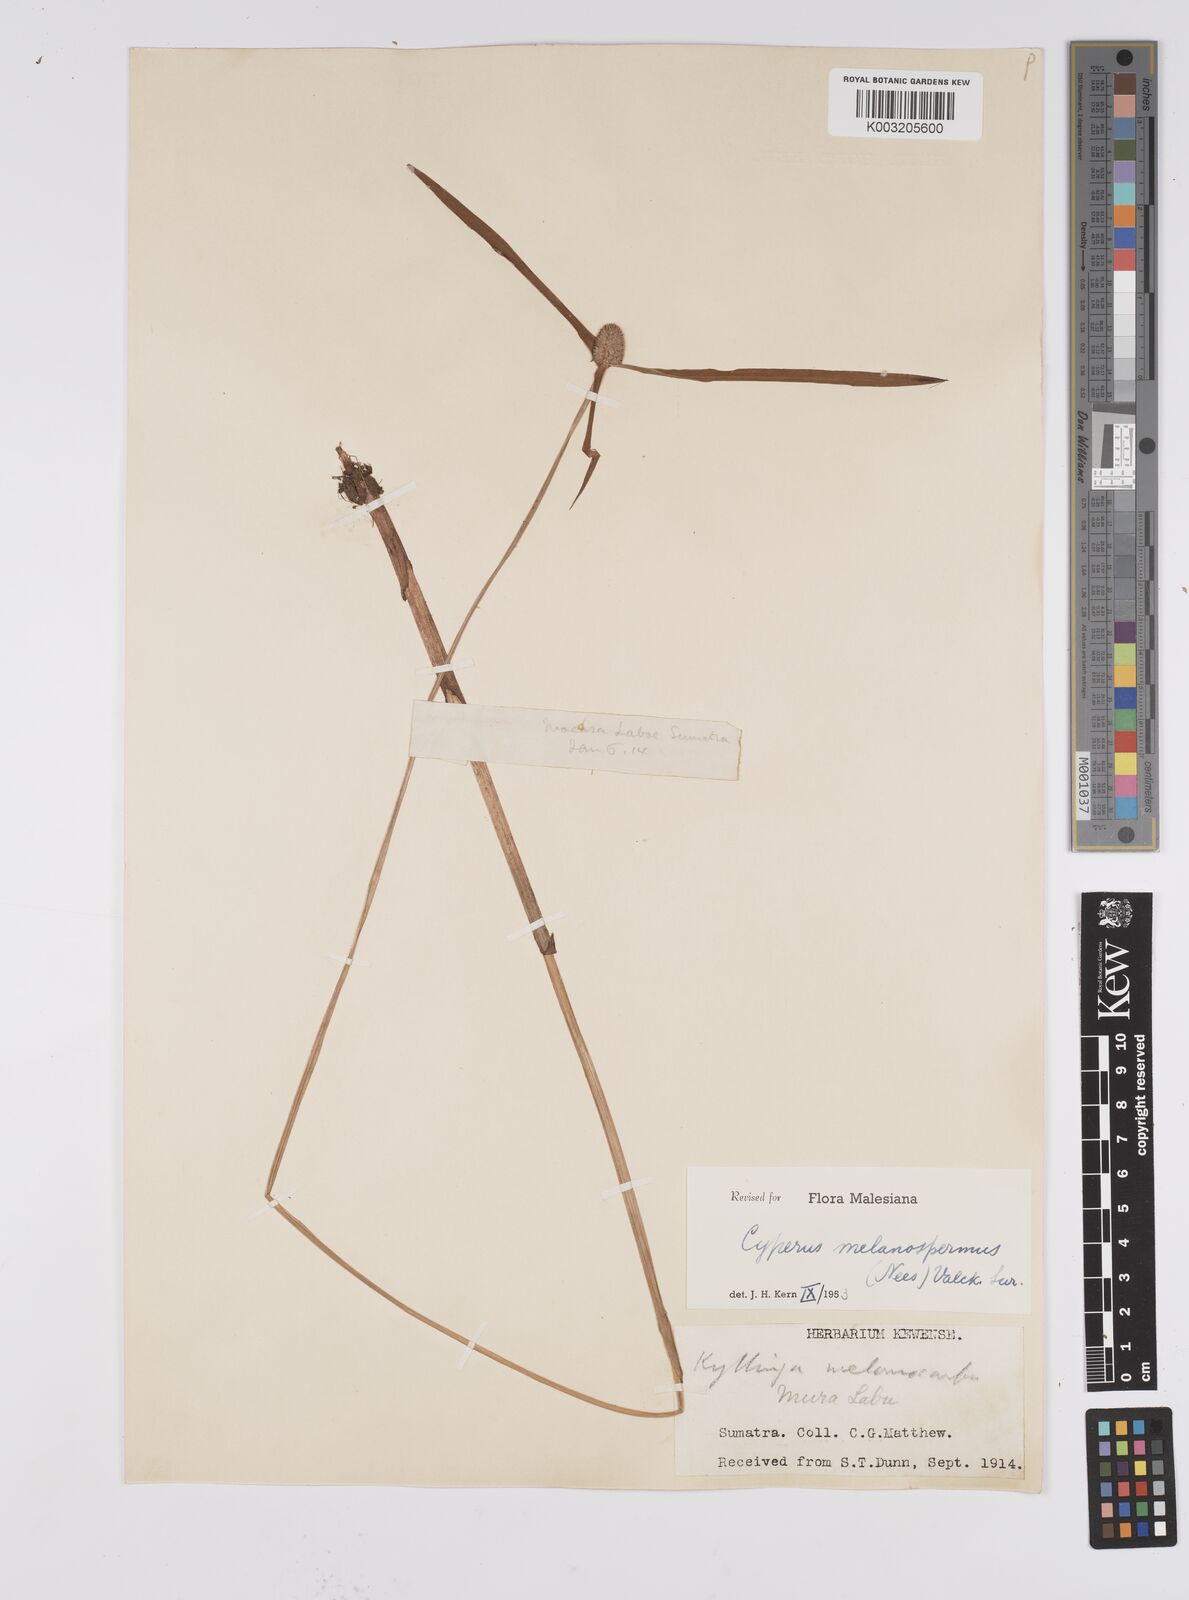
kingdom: Plantae
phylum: Tracheophyta
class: Liliopsida
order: Poales
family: Cyperaceae
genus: Cyperus
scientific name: Cyperus melanospermus
